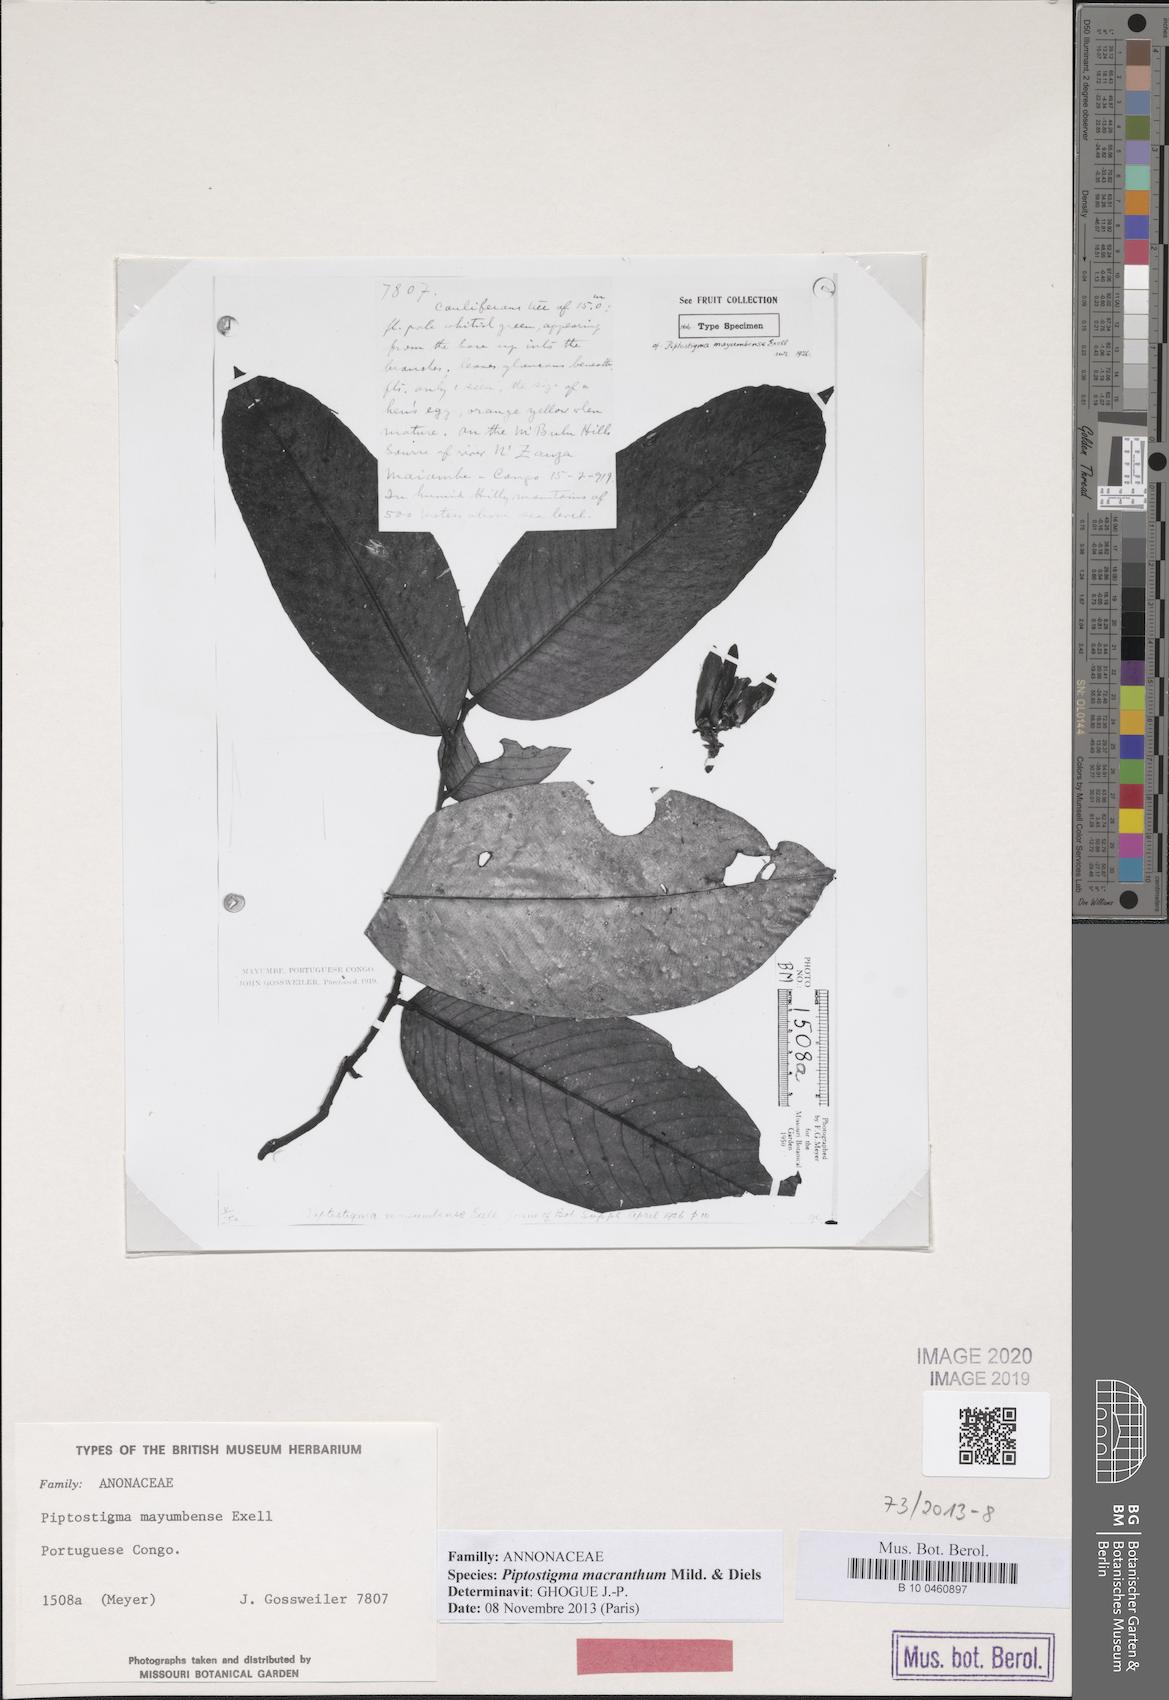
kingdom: Plantae
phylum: Tracheophyta
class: Magnoliopsida
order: Magnoliales
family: Annonaceae
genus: Piptostigma
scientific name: Piptostigma macranthum
